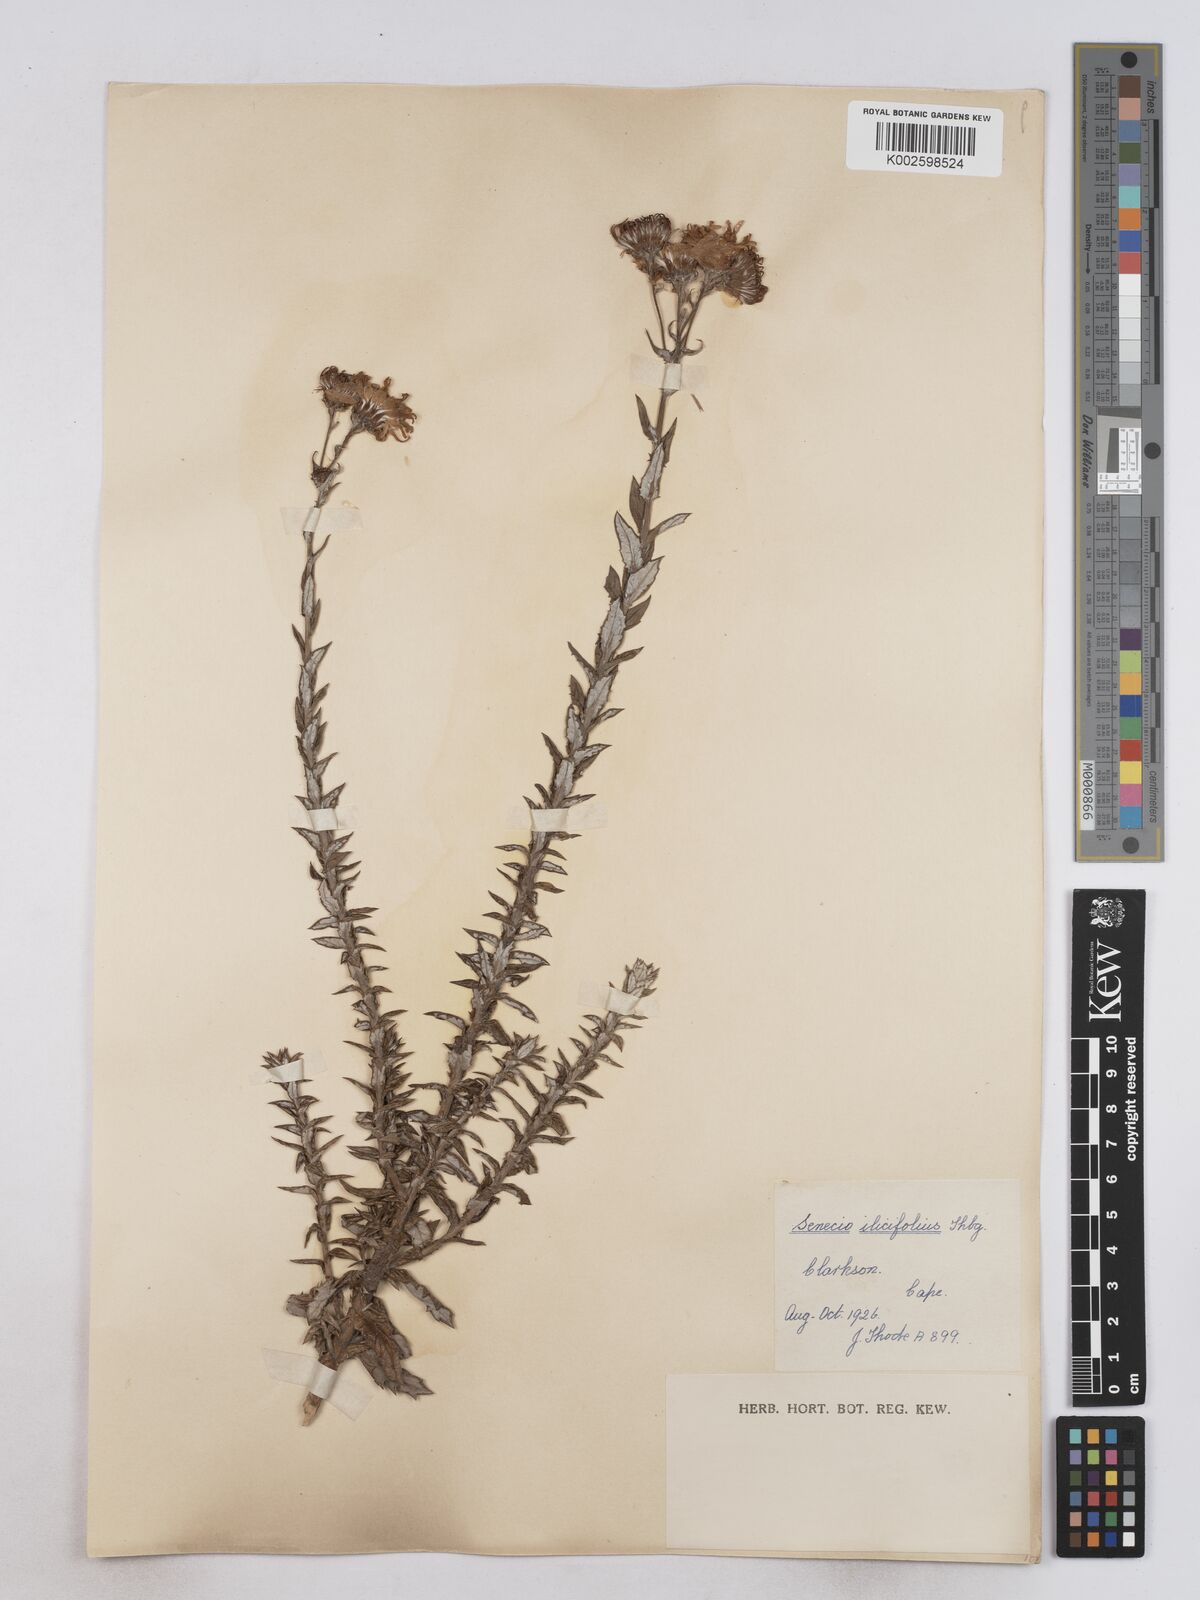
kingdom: Plantae
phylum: Tracheophyta
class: Magnoliopsida
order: Asterales
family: Asteraceae
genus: Senecio
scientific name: Senecio ilicifolius
